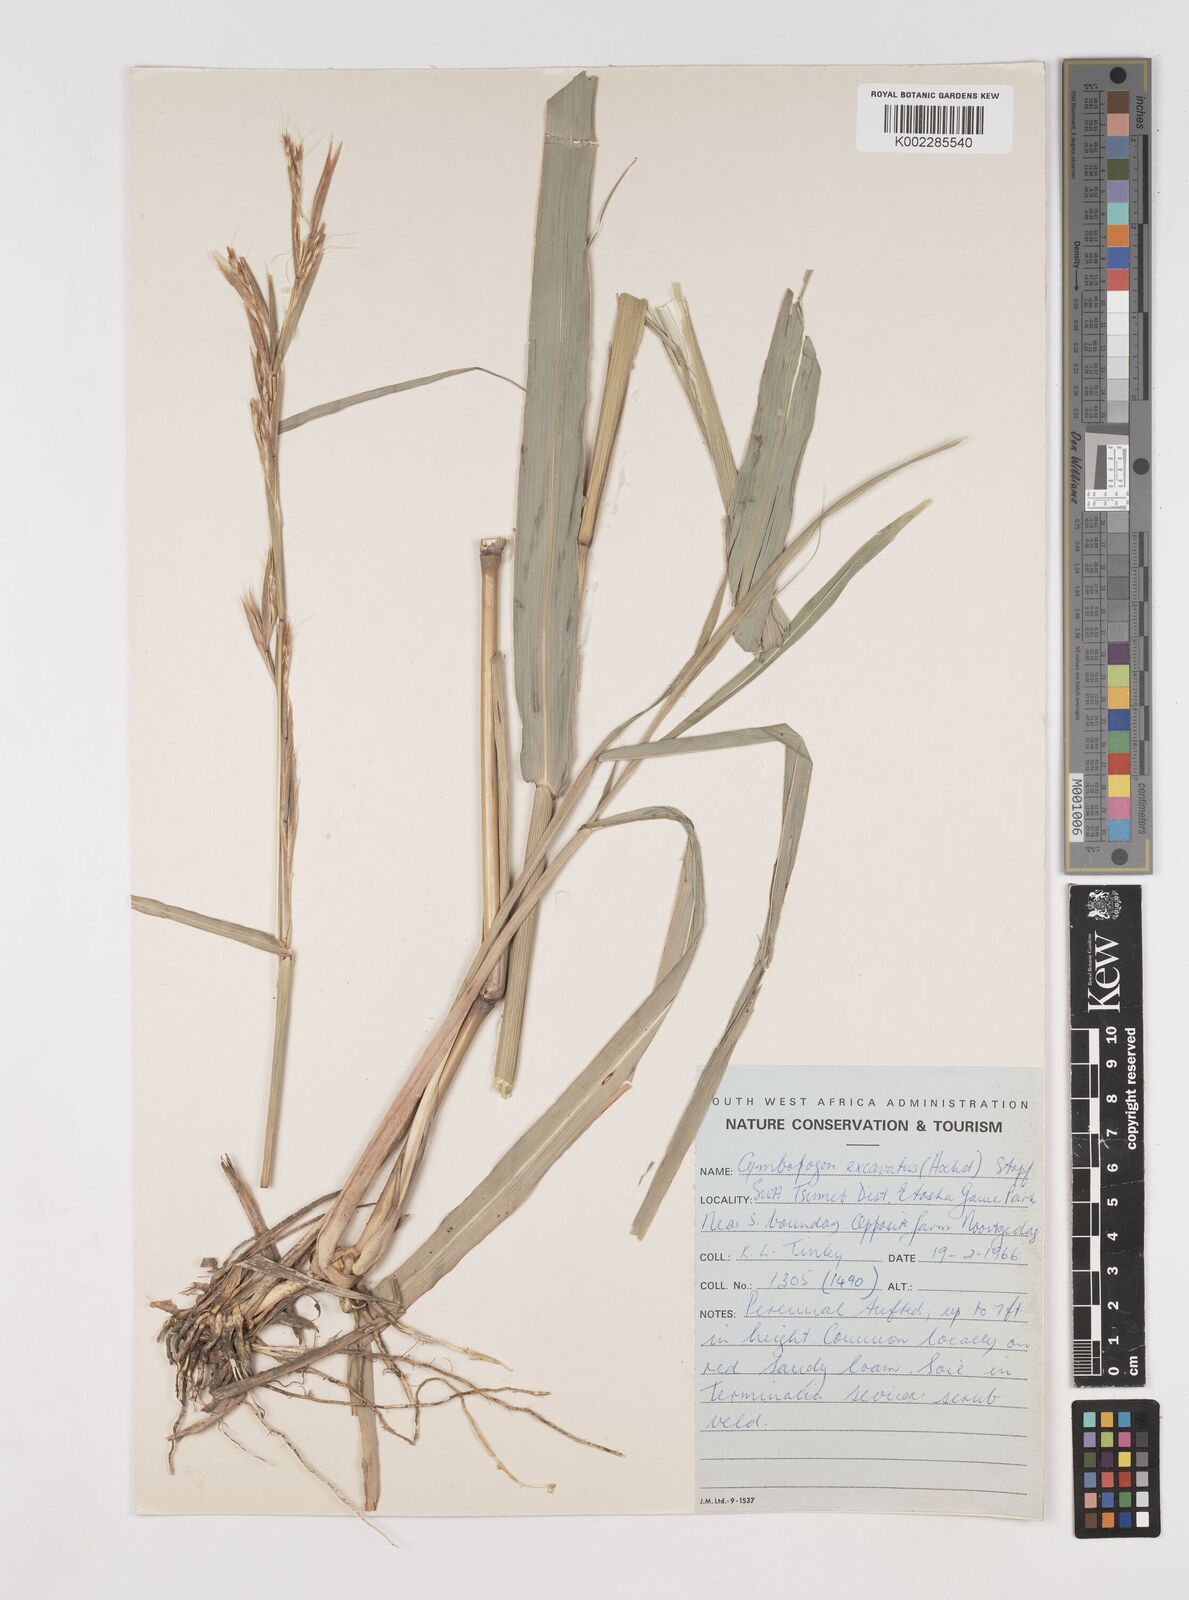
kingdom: Plantae
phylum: Tracheophyta
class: Liliopsida
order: Poales
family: Poaceae
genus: Cymbopogon
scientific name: Cymbopogon caesius
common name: Kachi grass
